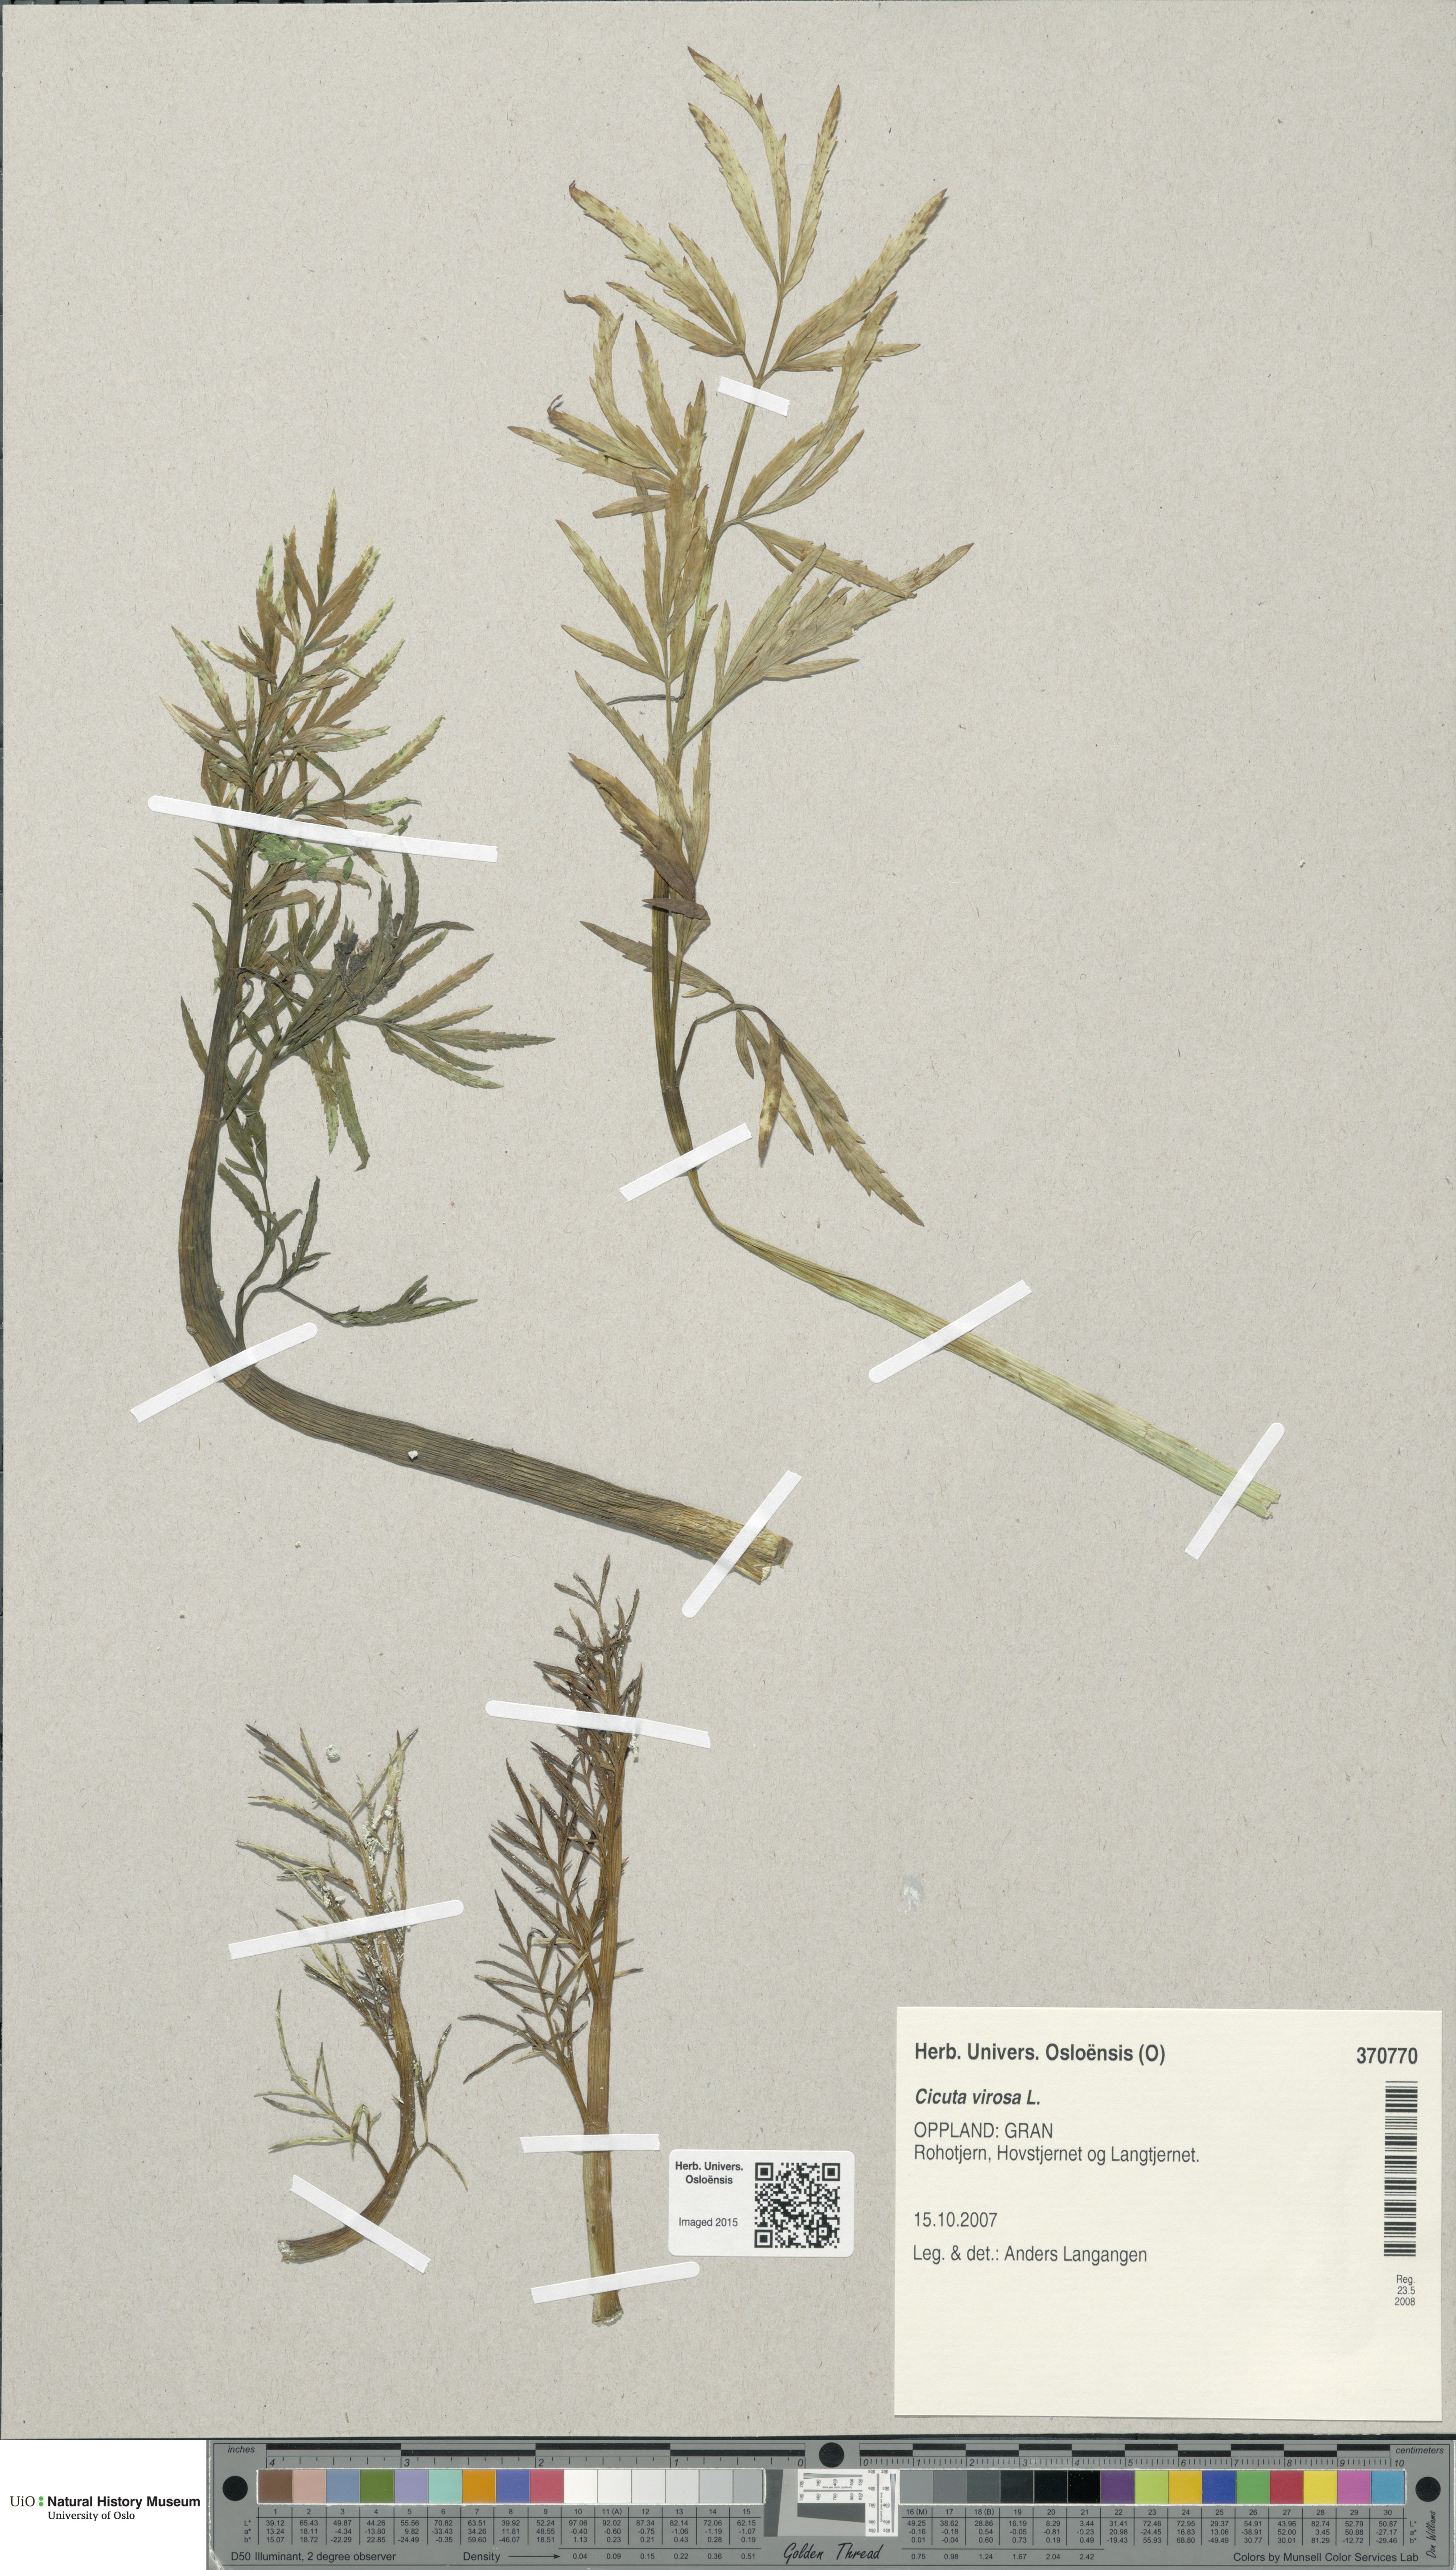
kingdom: Plantae
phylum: Tracheophyta
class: Magnoliopsida
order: Apiales
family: Apiaceae
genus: Cicuta
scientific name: Cicuta virosa
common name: Cowbane
